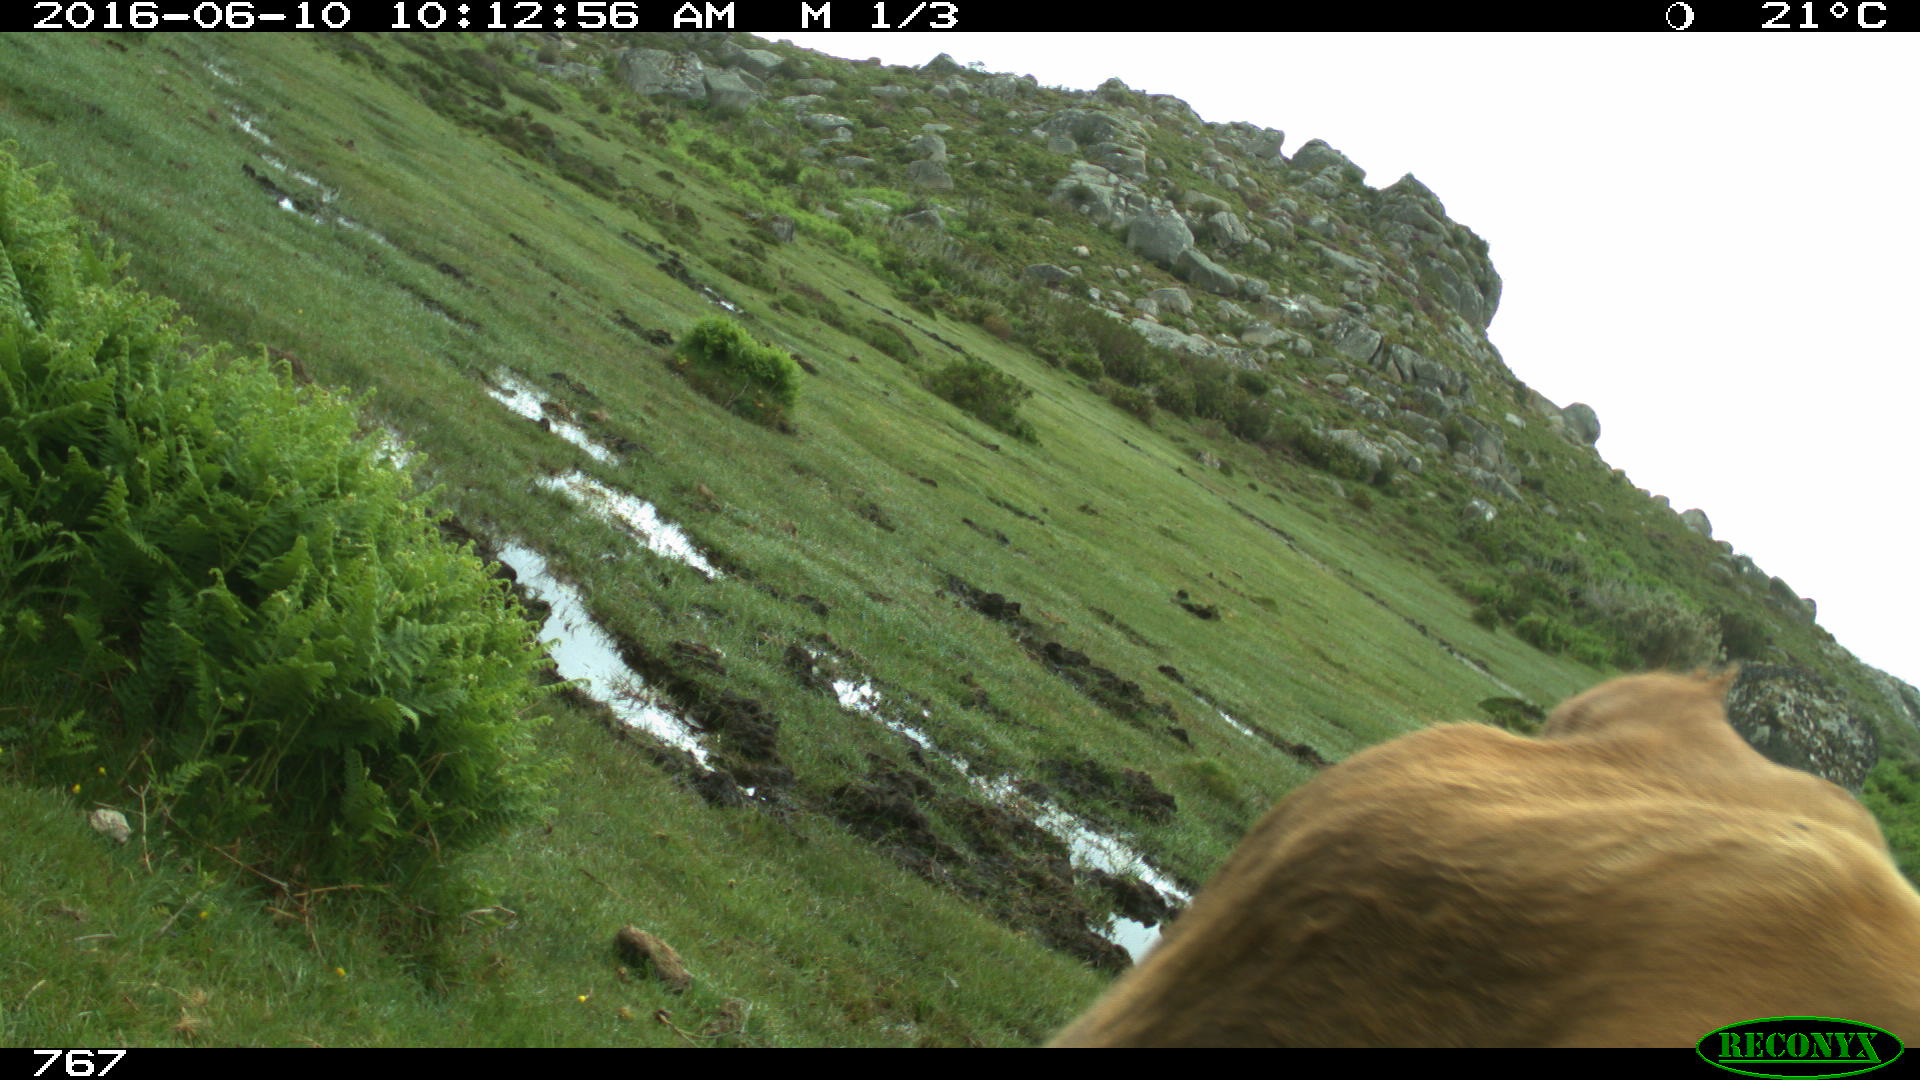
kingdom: Animalia
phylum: Chordata
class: Mammalia
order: Artiodactyla
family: Bovidae
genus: Bos
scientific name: Bos taurus
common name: Domesticated cattle
